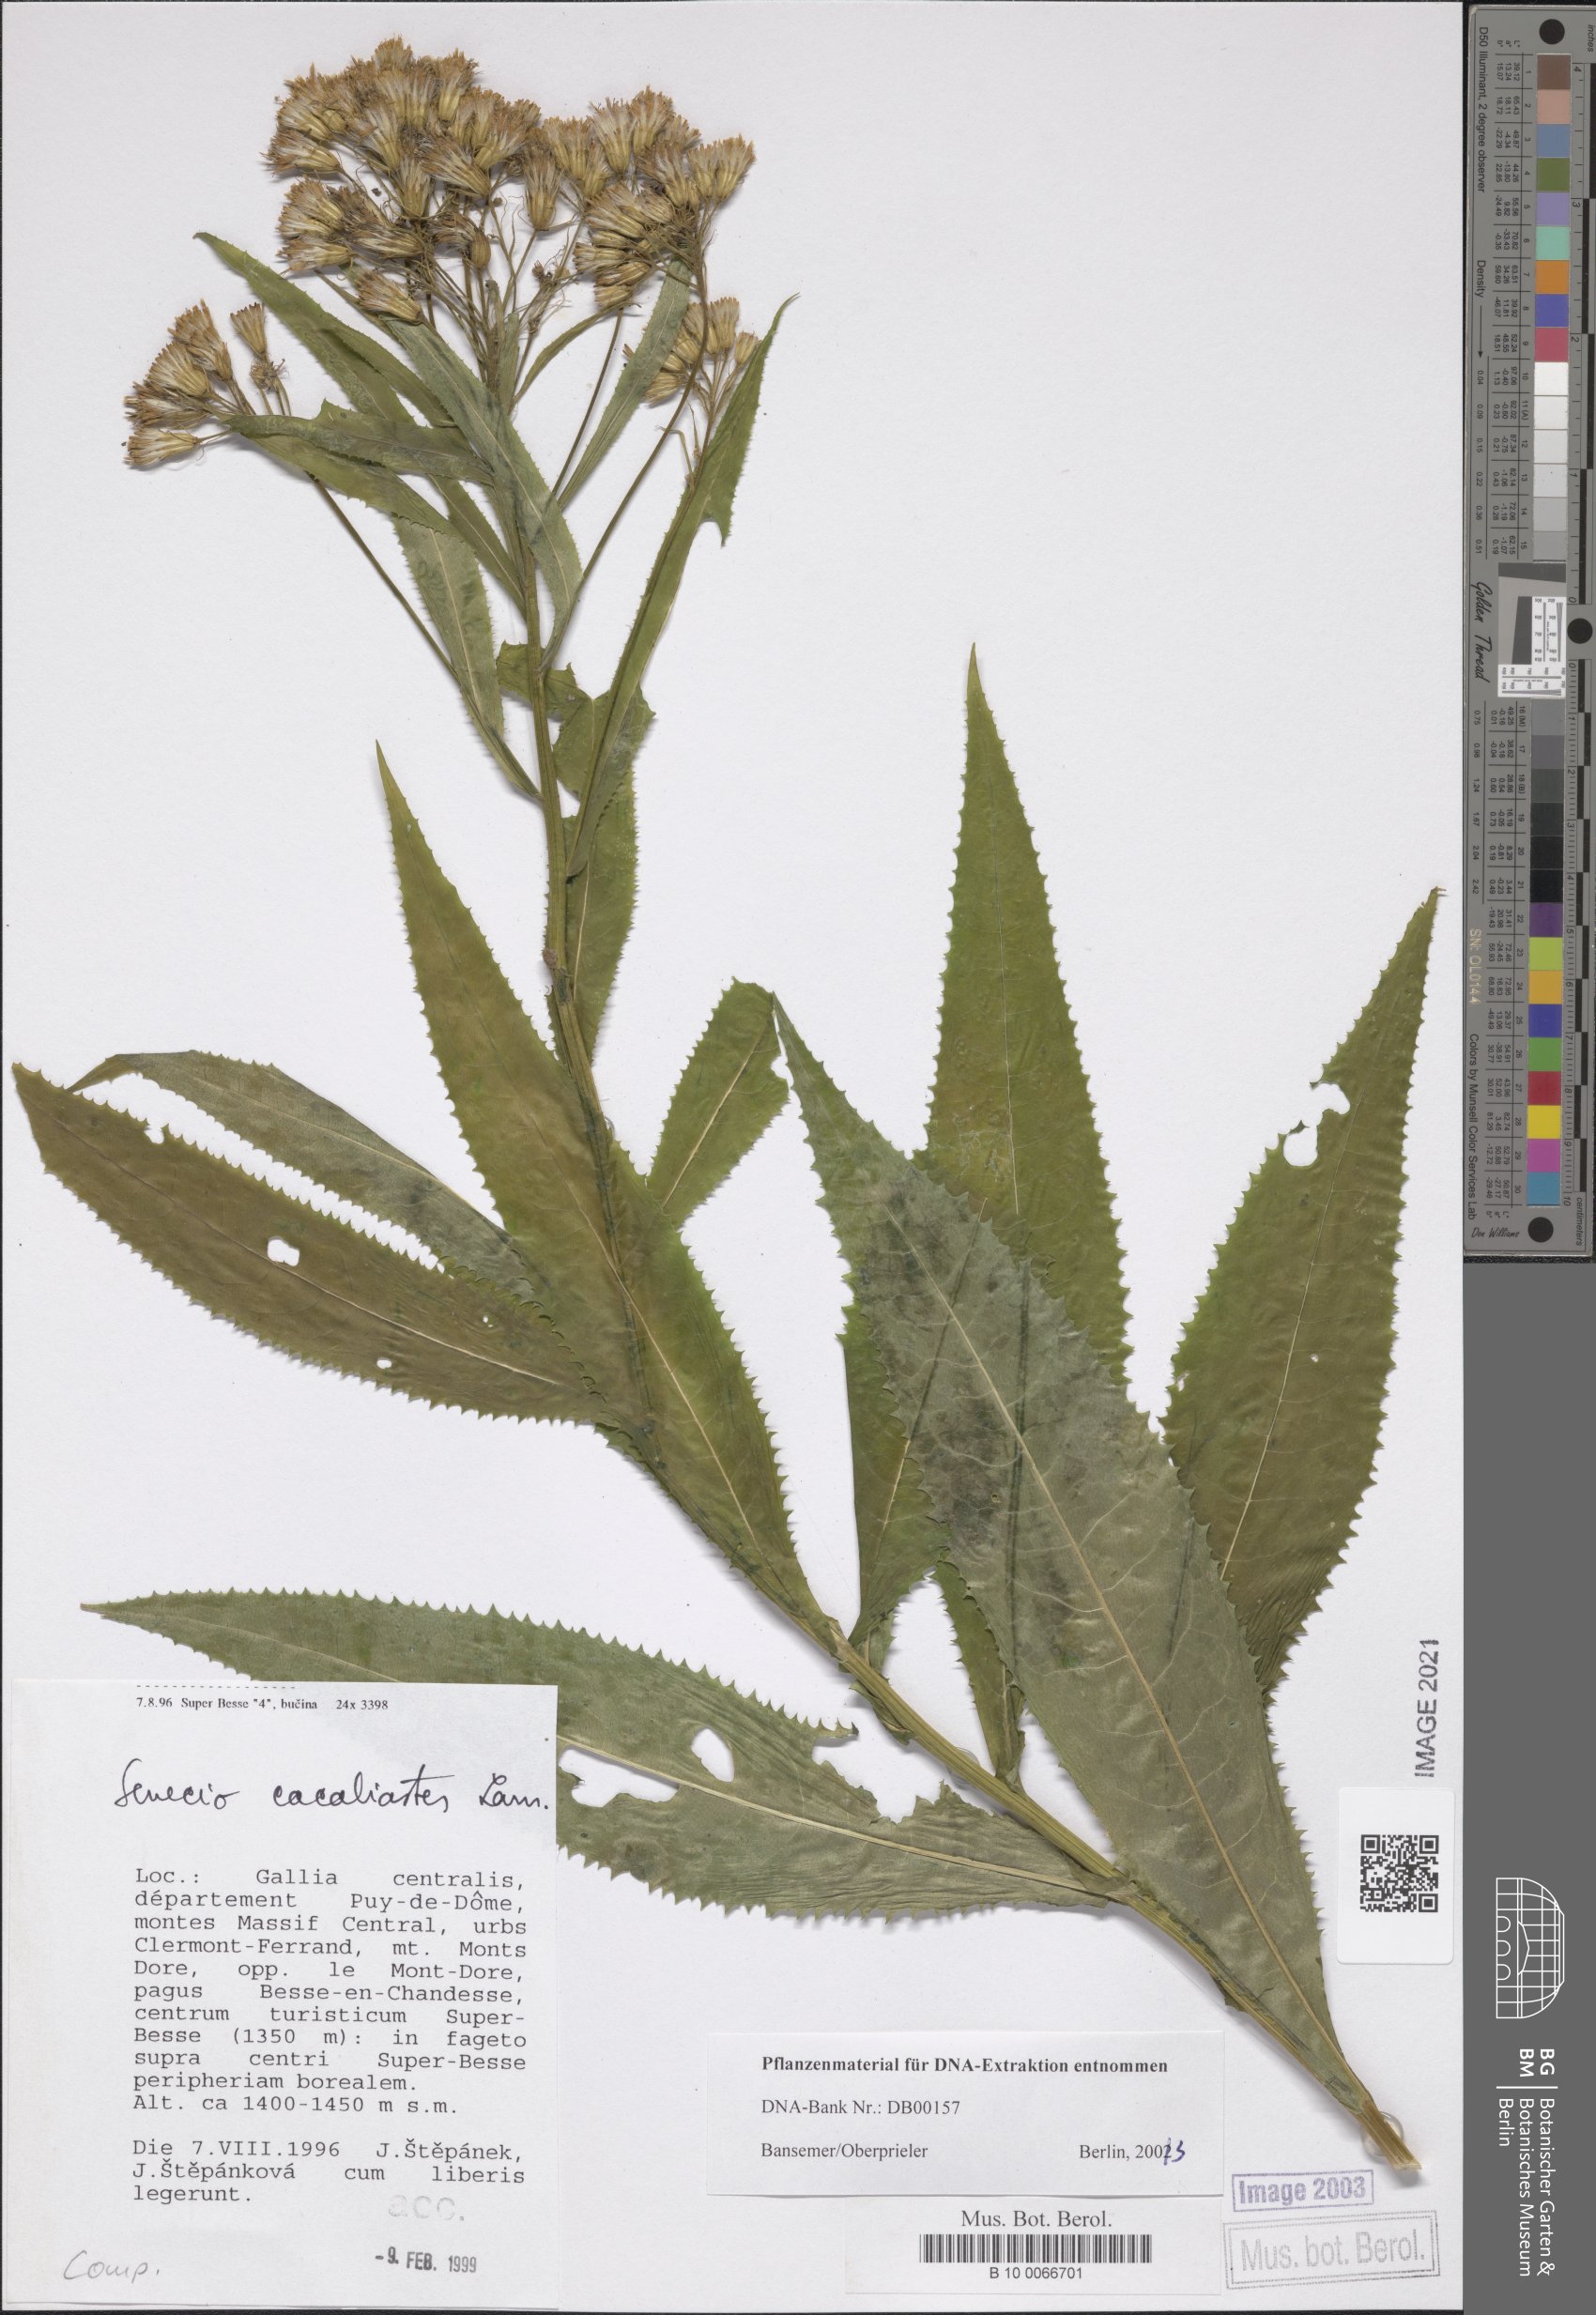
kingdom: Plantae
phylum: Tracheophyta
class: Magnoliopsida
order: Asterales
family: Asteraceae
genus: Senecio
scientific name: Senecio cacaliaster
